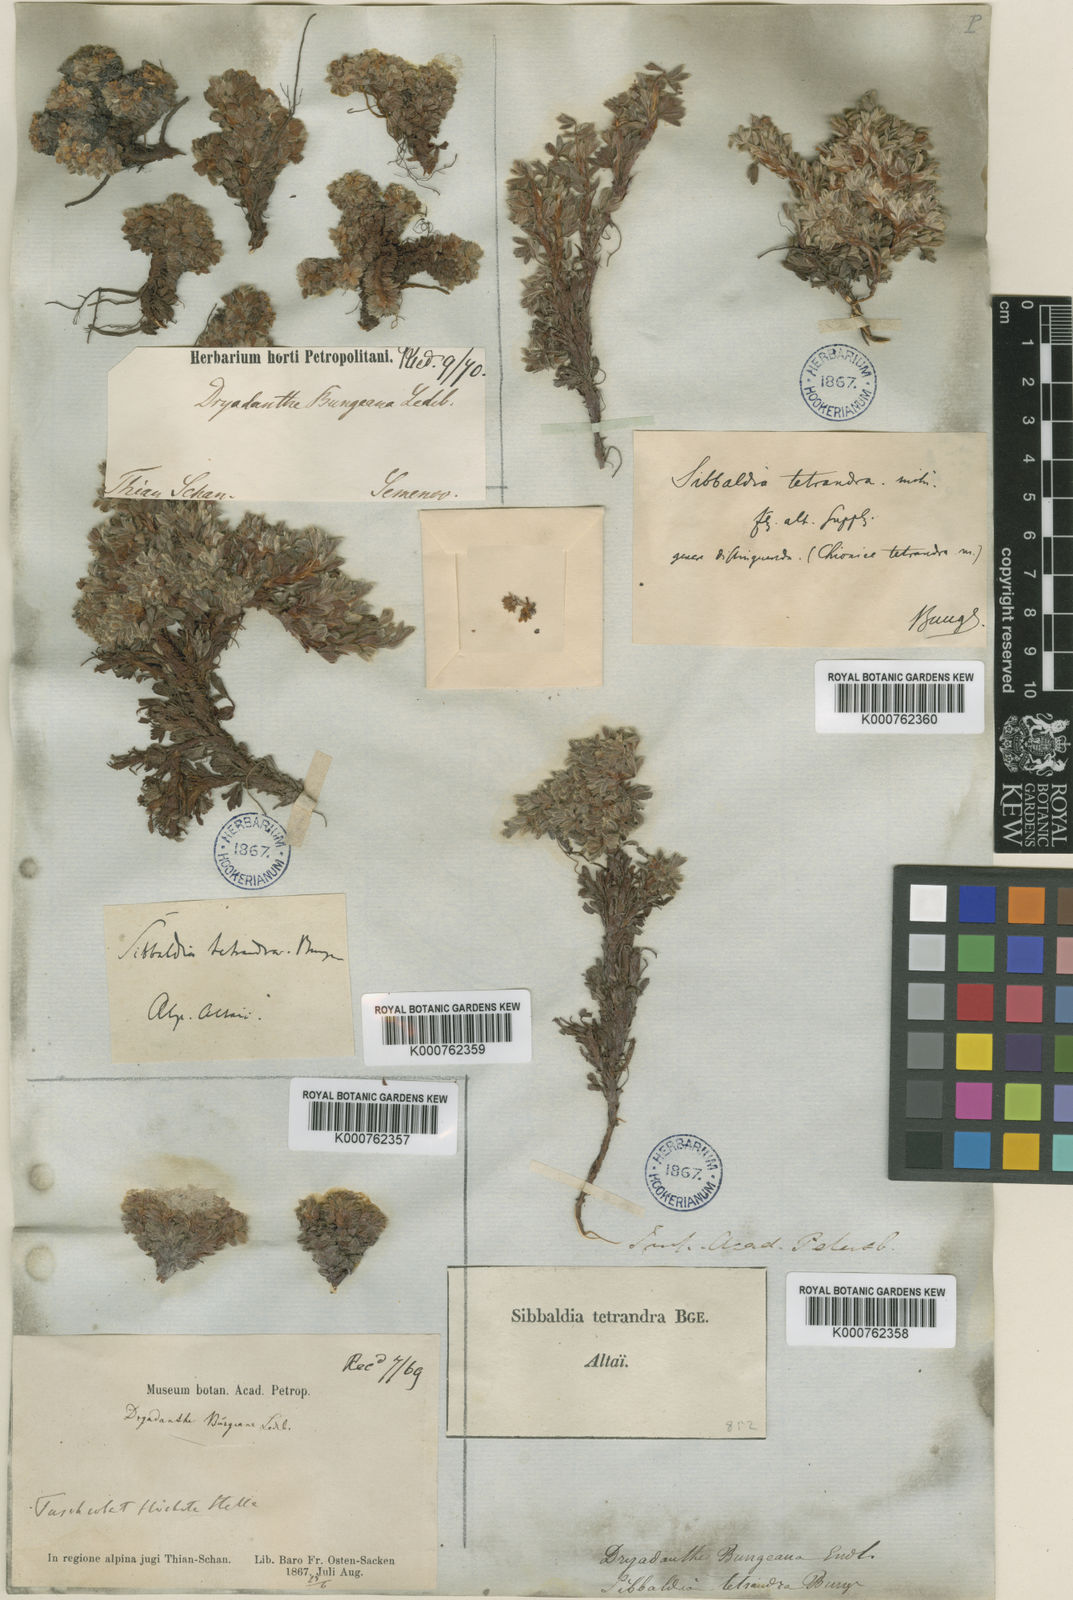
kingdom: Plantae
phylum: Tracheophyta
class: Magnoliopsida
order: Rosales
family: Rosaceae
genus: Potentilla
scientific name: Potentilla bungei
